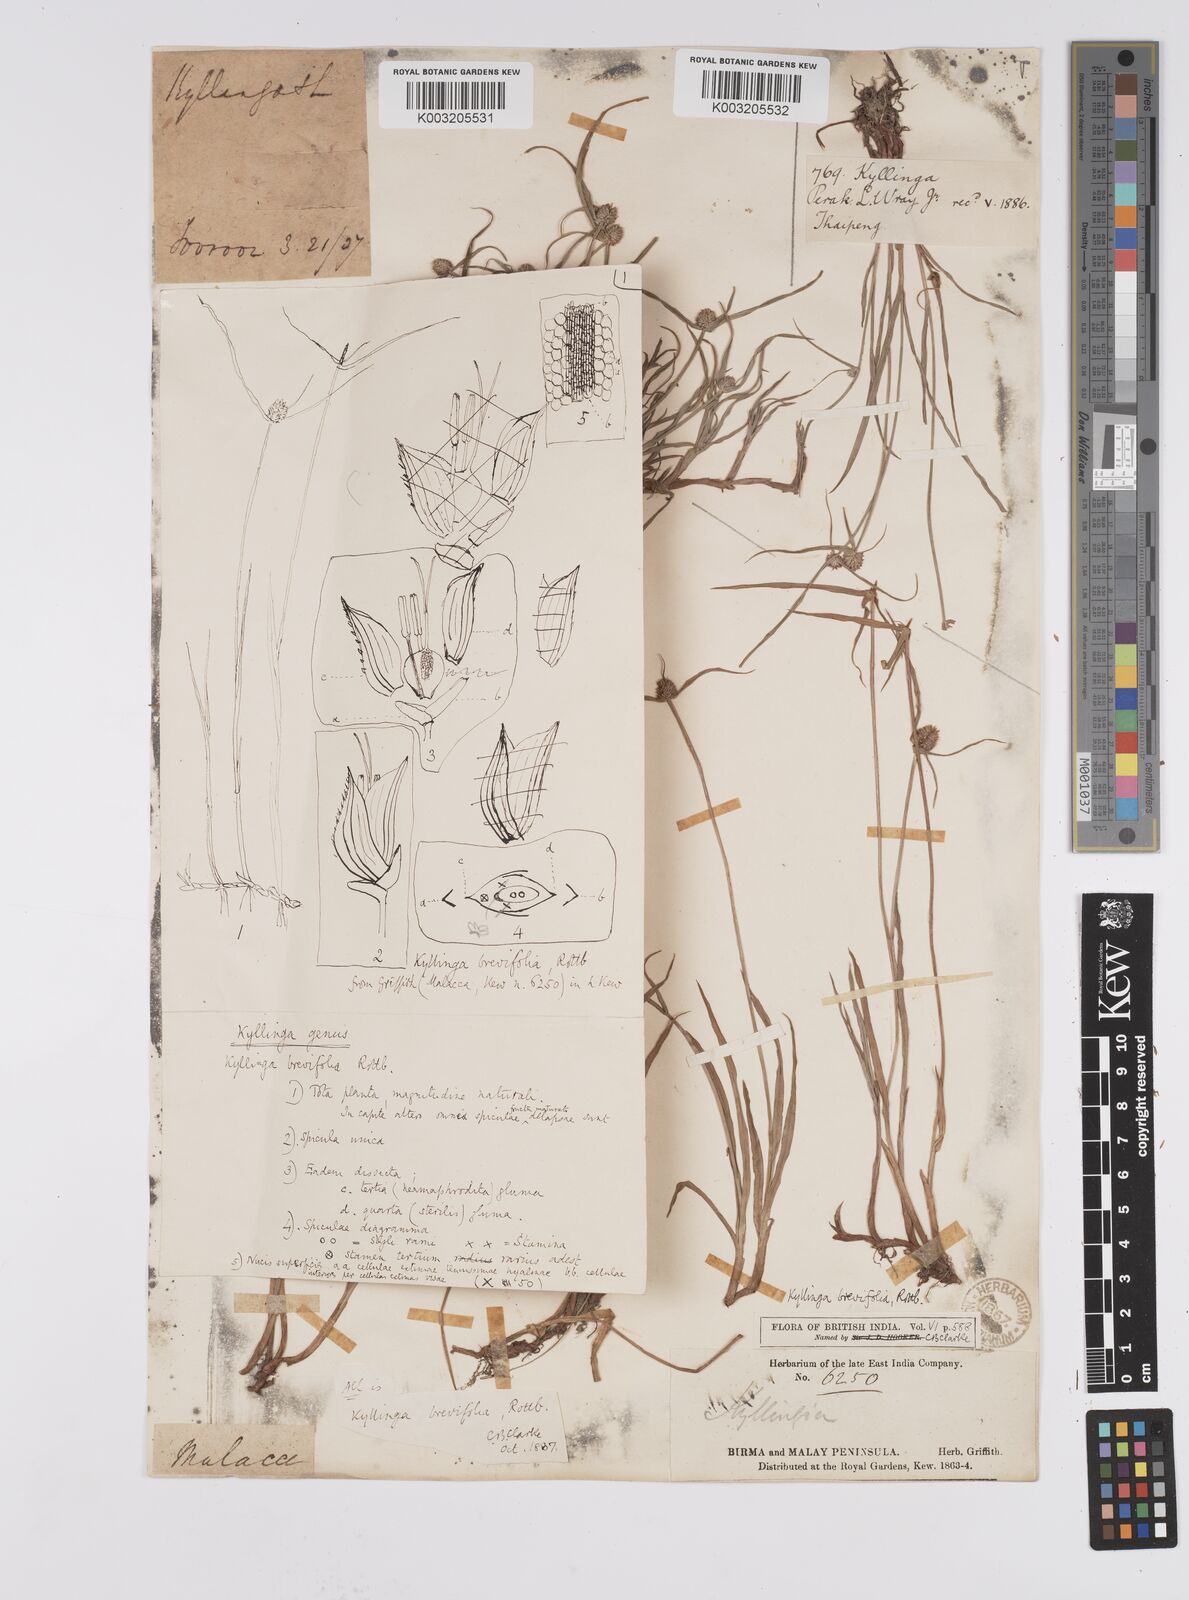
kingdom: Plantae
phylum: Tracheophyta
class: Liliopsida
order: Poales
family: Cyperaceae
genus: Cyperus
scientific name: Cyperus
